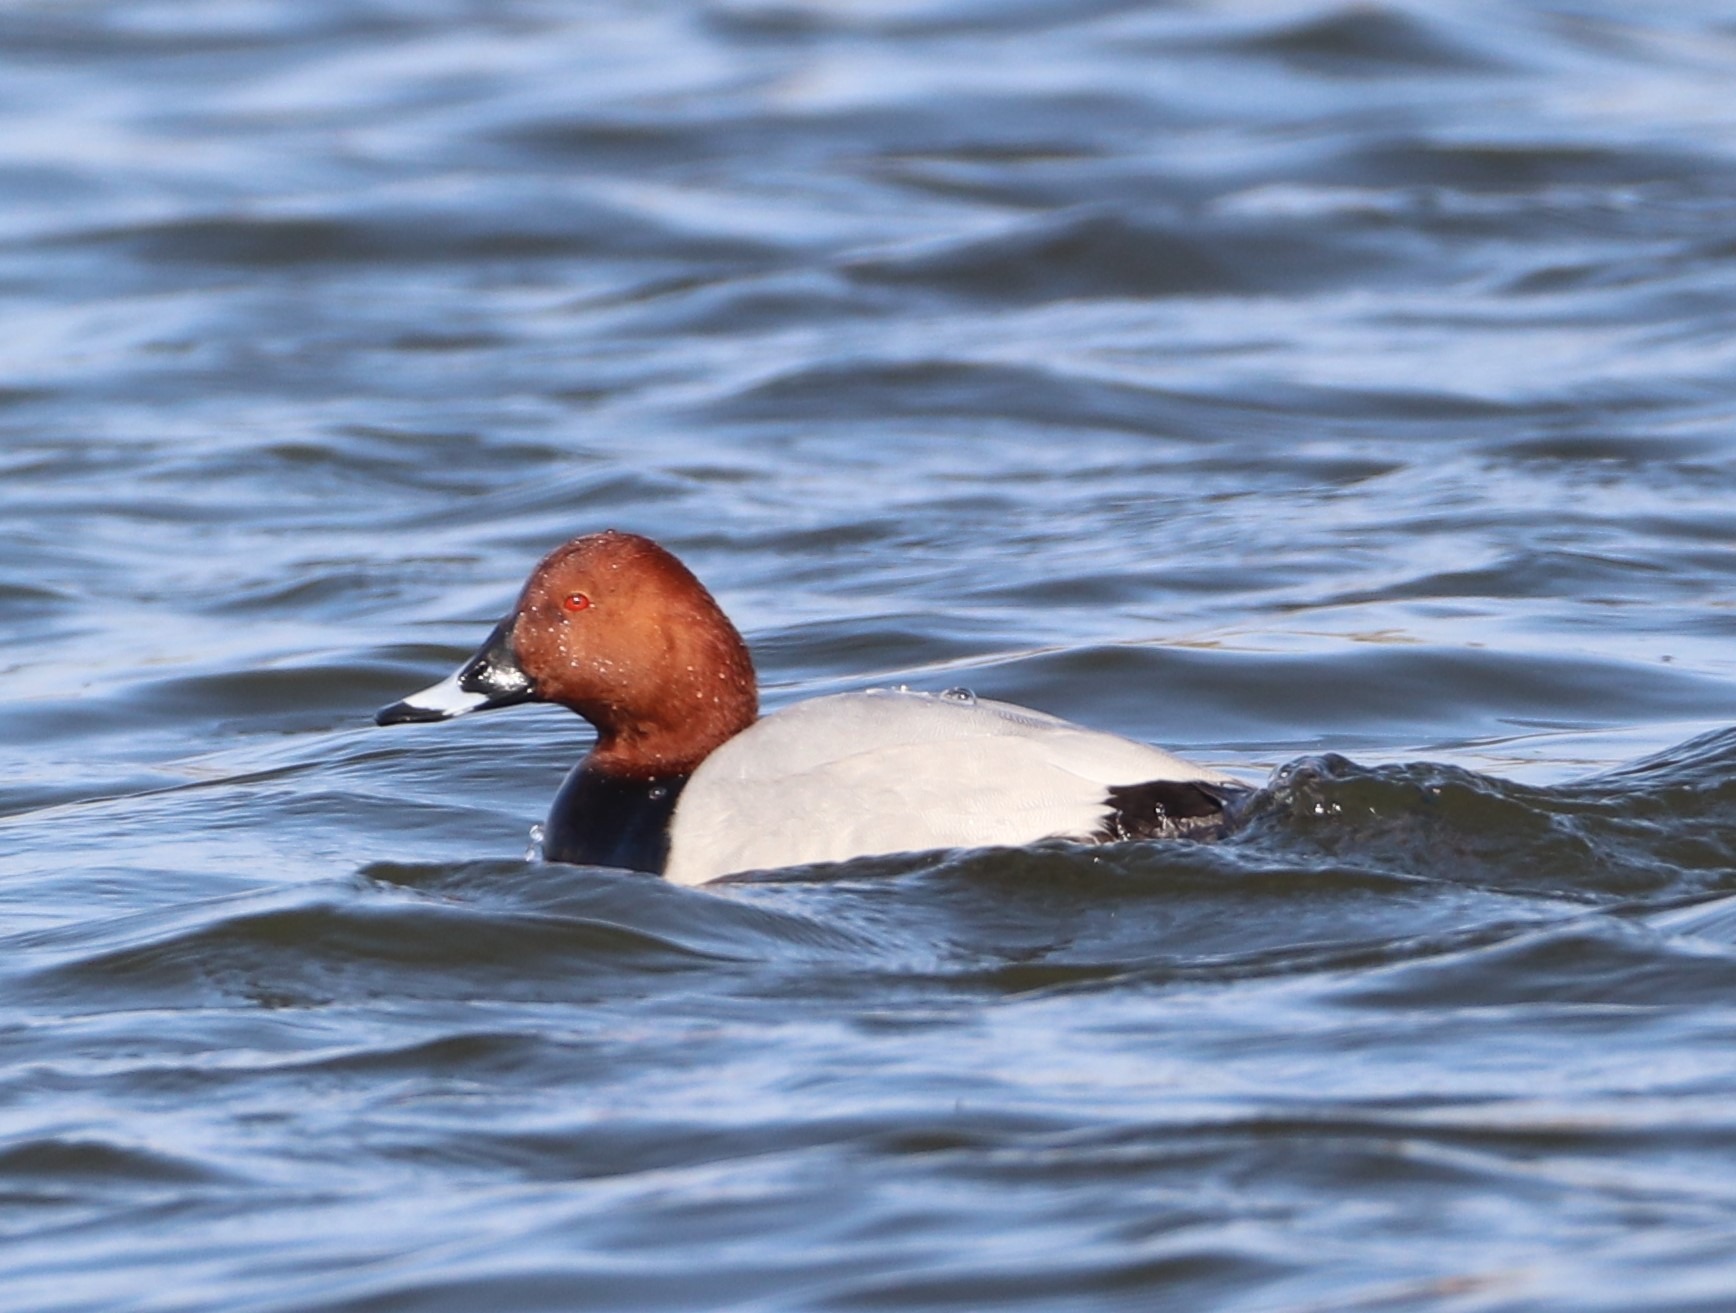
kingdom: Animalia
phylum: Chordata
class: Aves
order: Anseriformes
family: Anatidae
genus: Aythya
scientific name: Aythya ferina
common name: Taffeland
